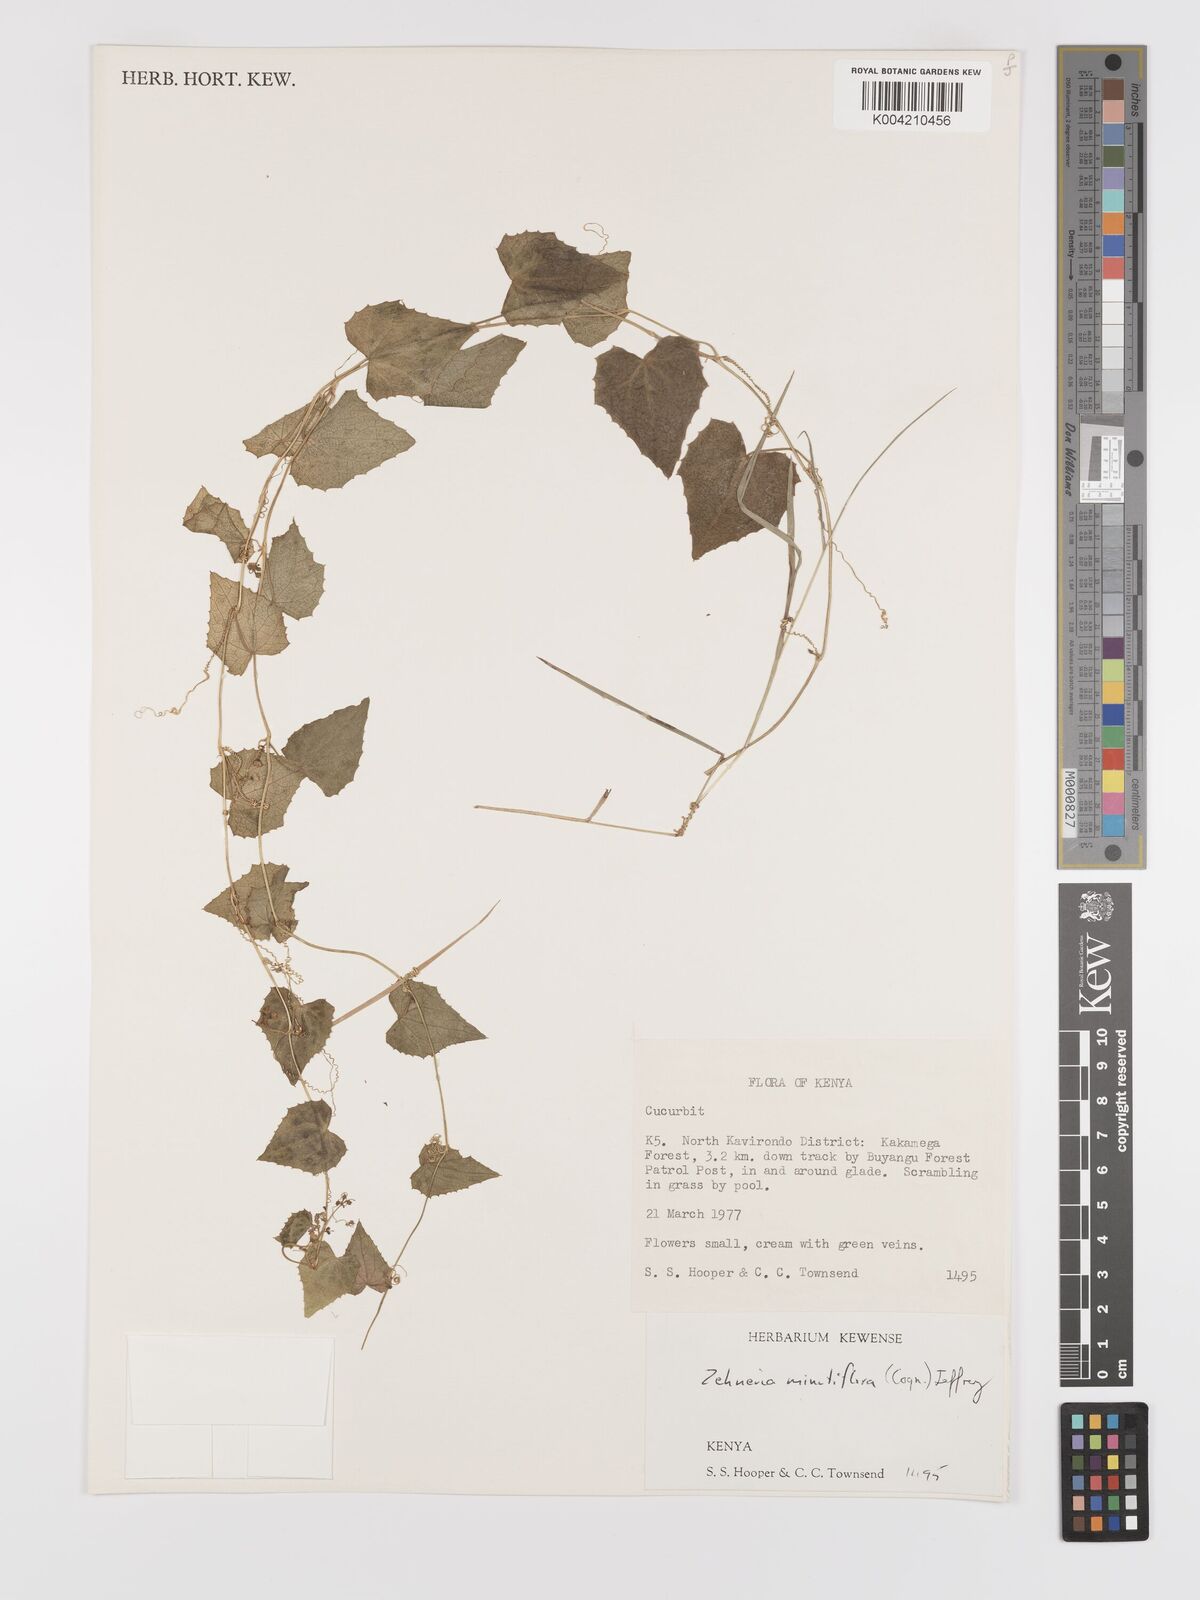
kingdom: Plantae
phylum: Tracheophyta
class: Magnoliopsida
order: Cucurbitales
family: Cucurbitaceae
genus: Zehneria
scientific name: Zehneria minutiflora
